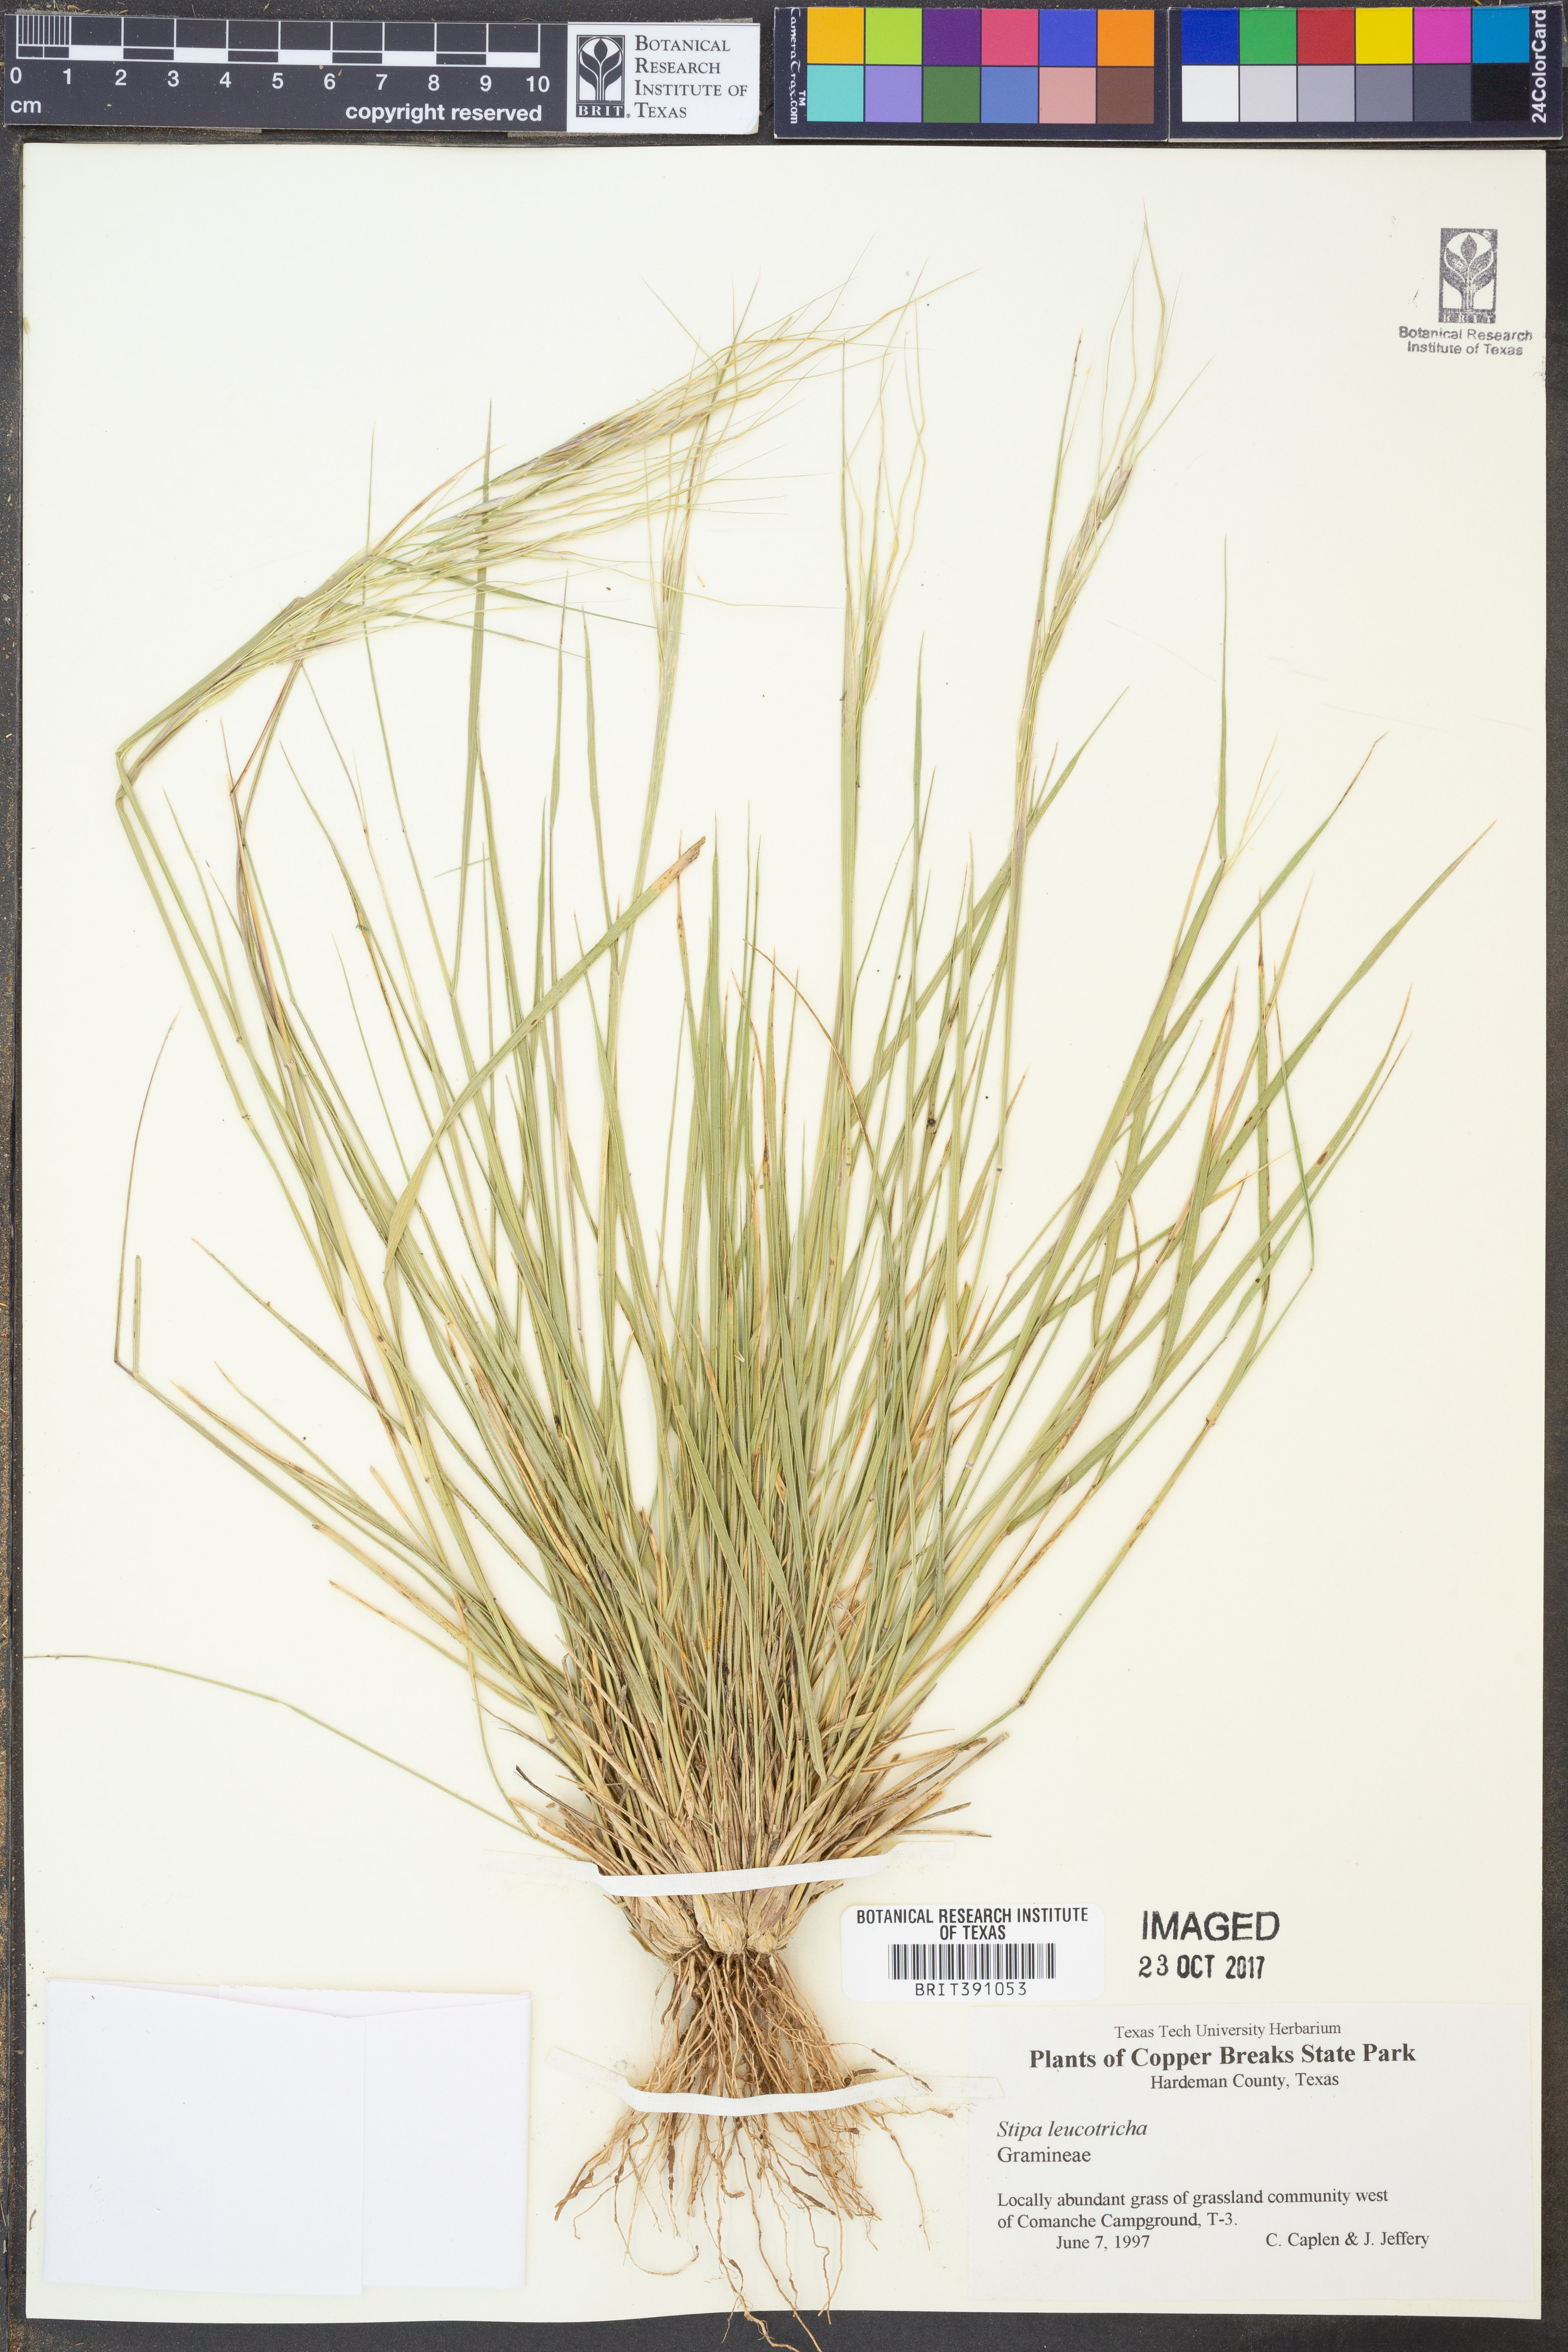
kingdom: Plantae
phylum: Tracheophyta
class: Liliopsida
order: Poales
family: Poaceae
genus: Nassella
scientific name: Nassella leucotricha
